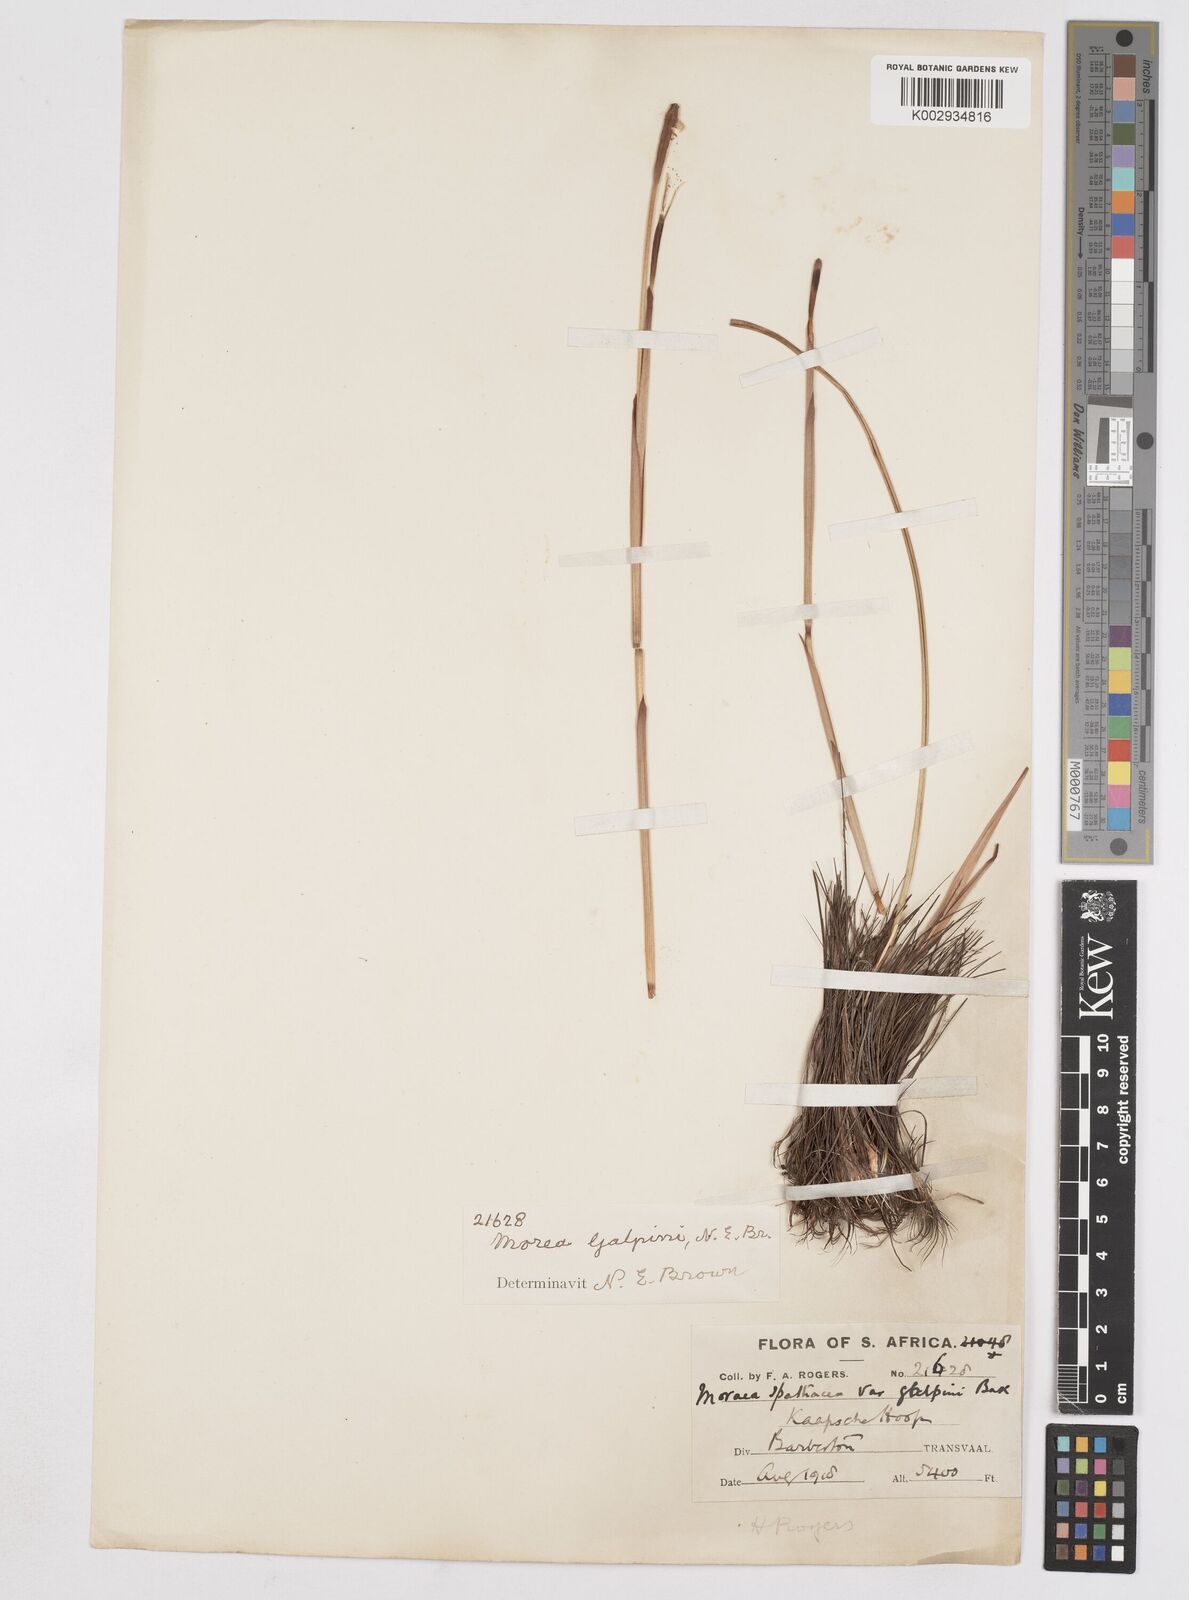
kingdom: Plantae
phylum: Tracheophyta
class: Liliopsida
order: Asparagales
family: Iridaceae
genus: Moraea
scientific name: Moraea galpinii
